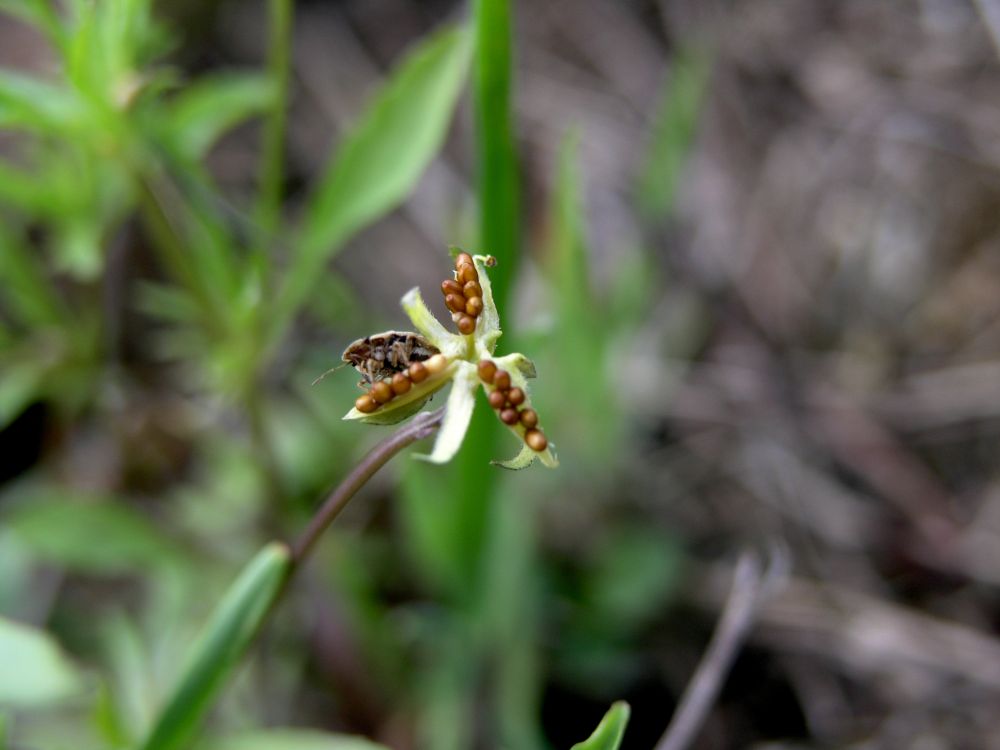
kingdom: Plantae
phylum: Tracheophyta
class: Magnoliopsida
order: Malpighiales
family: Violaceae
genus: Viola
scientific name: Viola arvensis
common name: Field pansy
